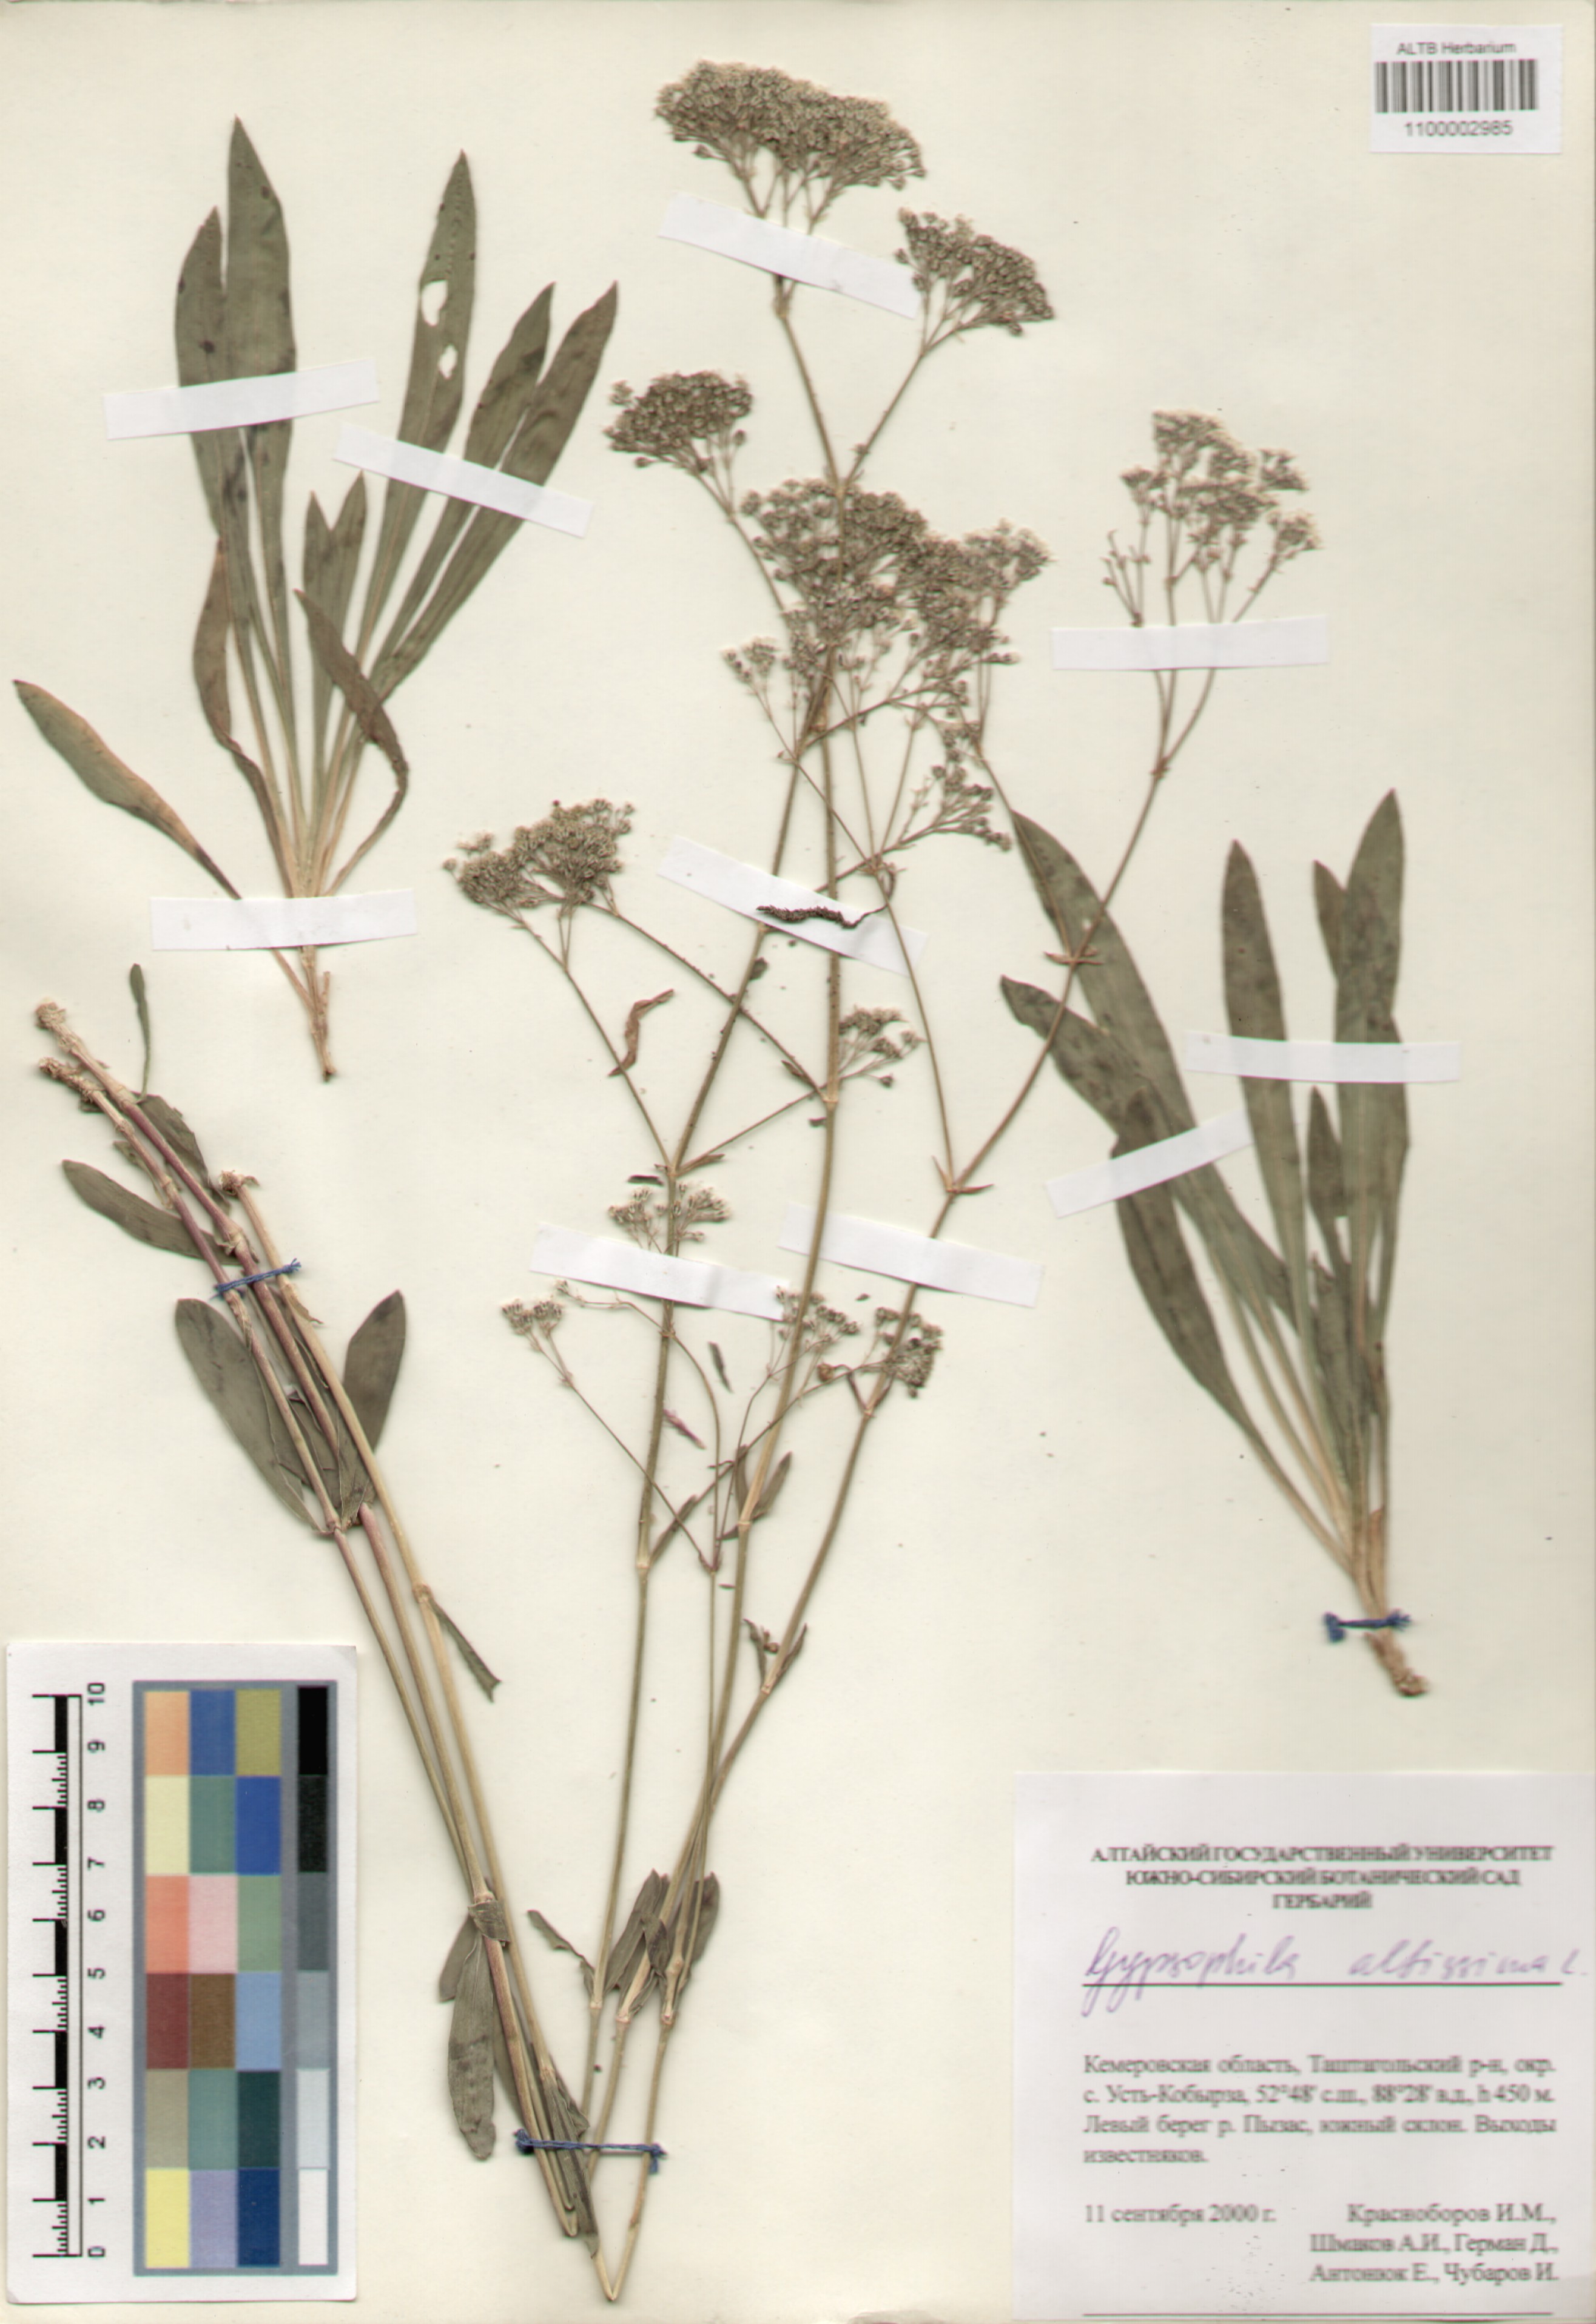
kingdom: Plantae
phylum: Tracheophyta
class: Magnoliopsida
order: Caryophyllales
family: Caryophyllaceae
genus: Gypsophila
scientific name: Gypsophila altissima
